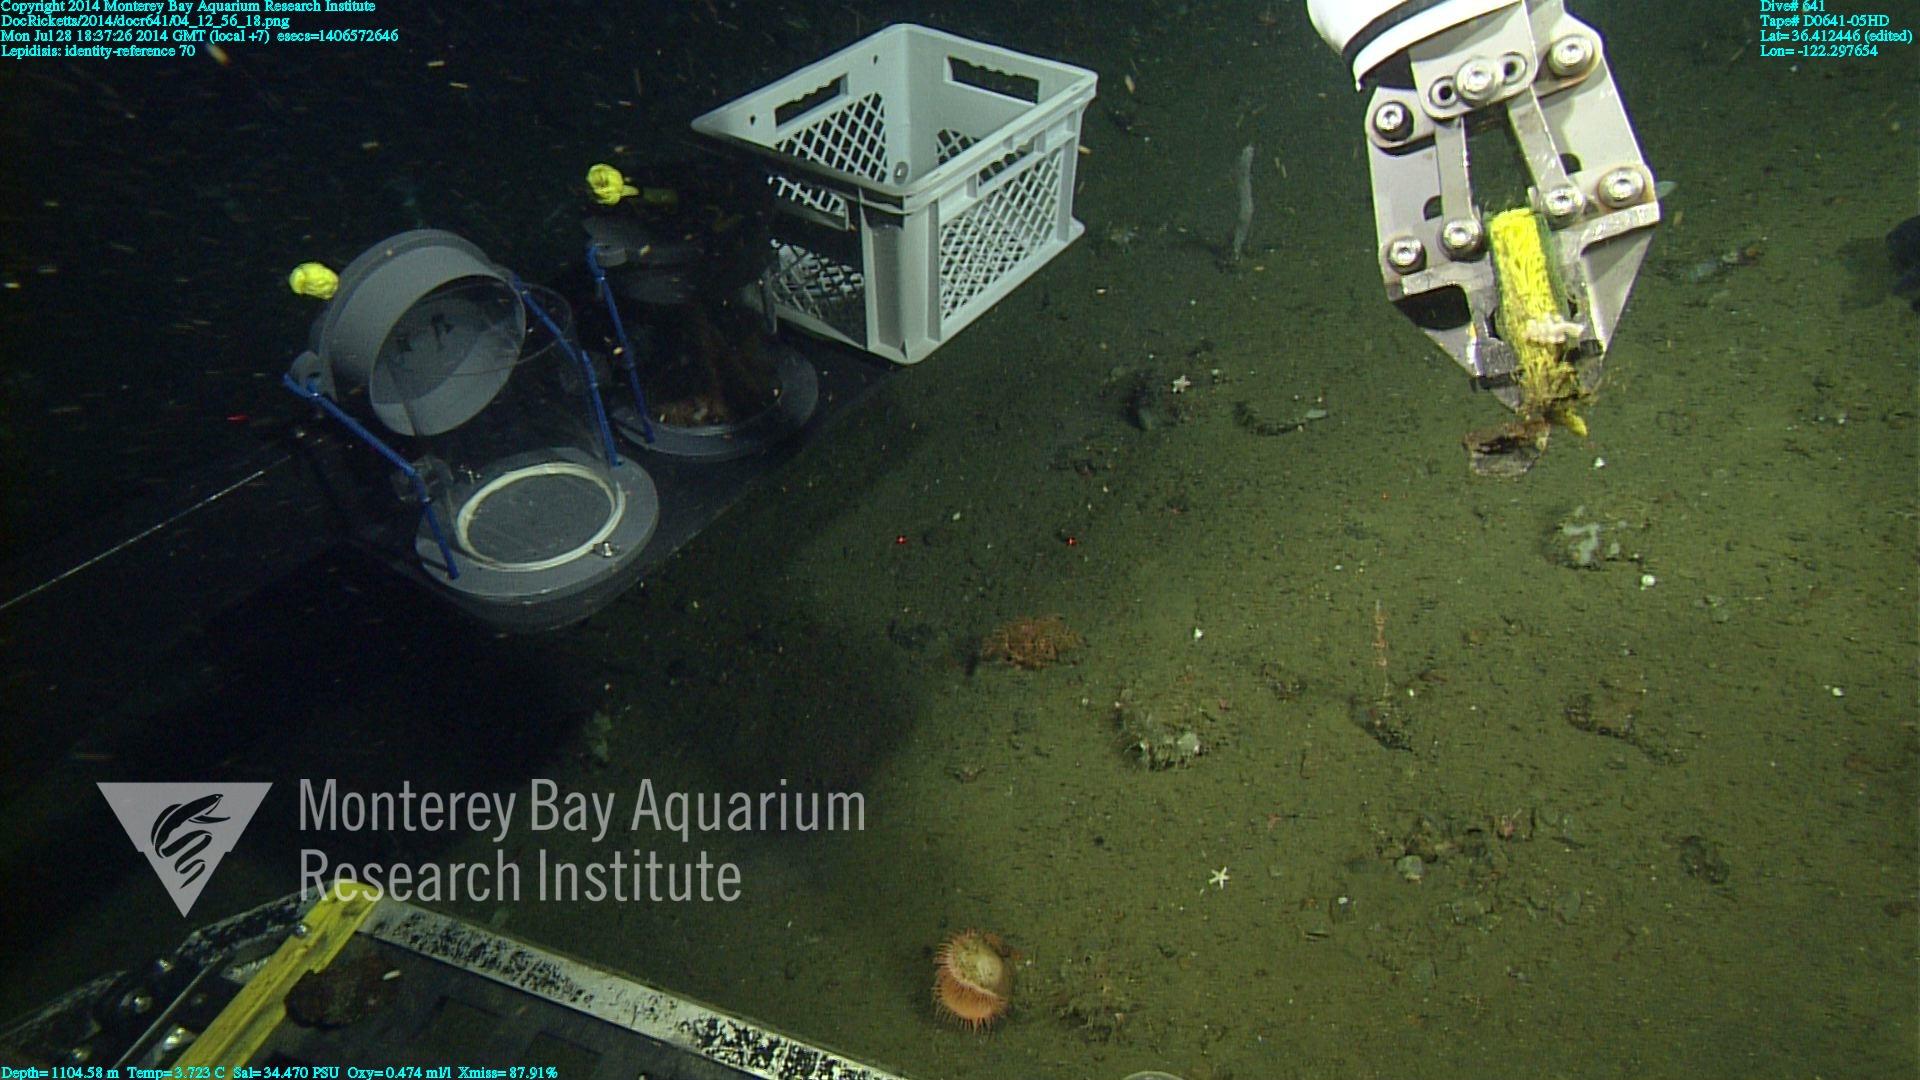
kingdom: Animalia
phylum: Cnidaria
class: Anthozoa
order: Scleralcyonacea
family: Keratoisididae
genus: Lepidisis
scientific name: Lepidisis
